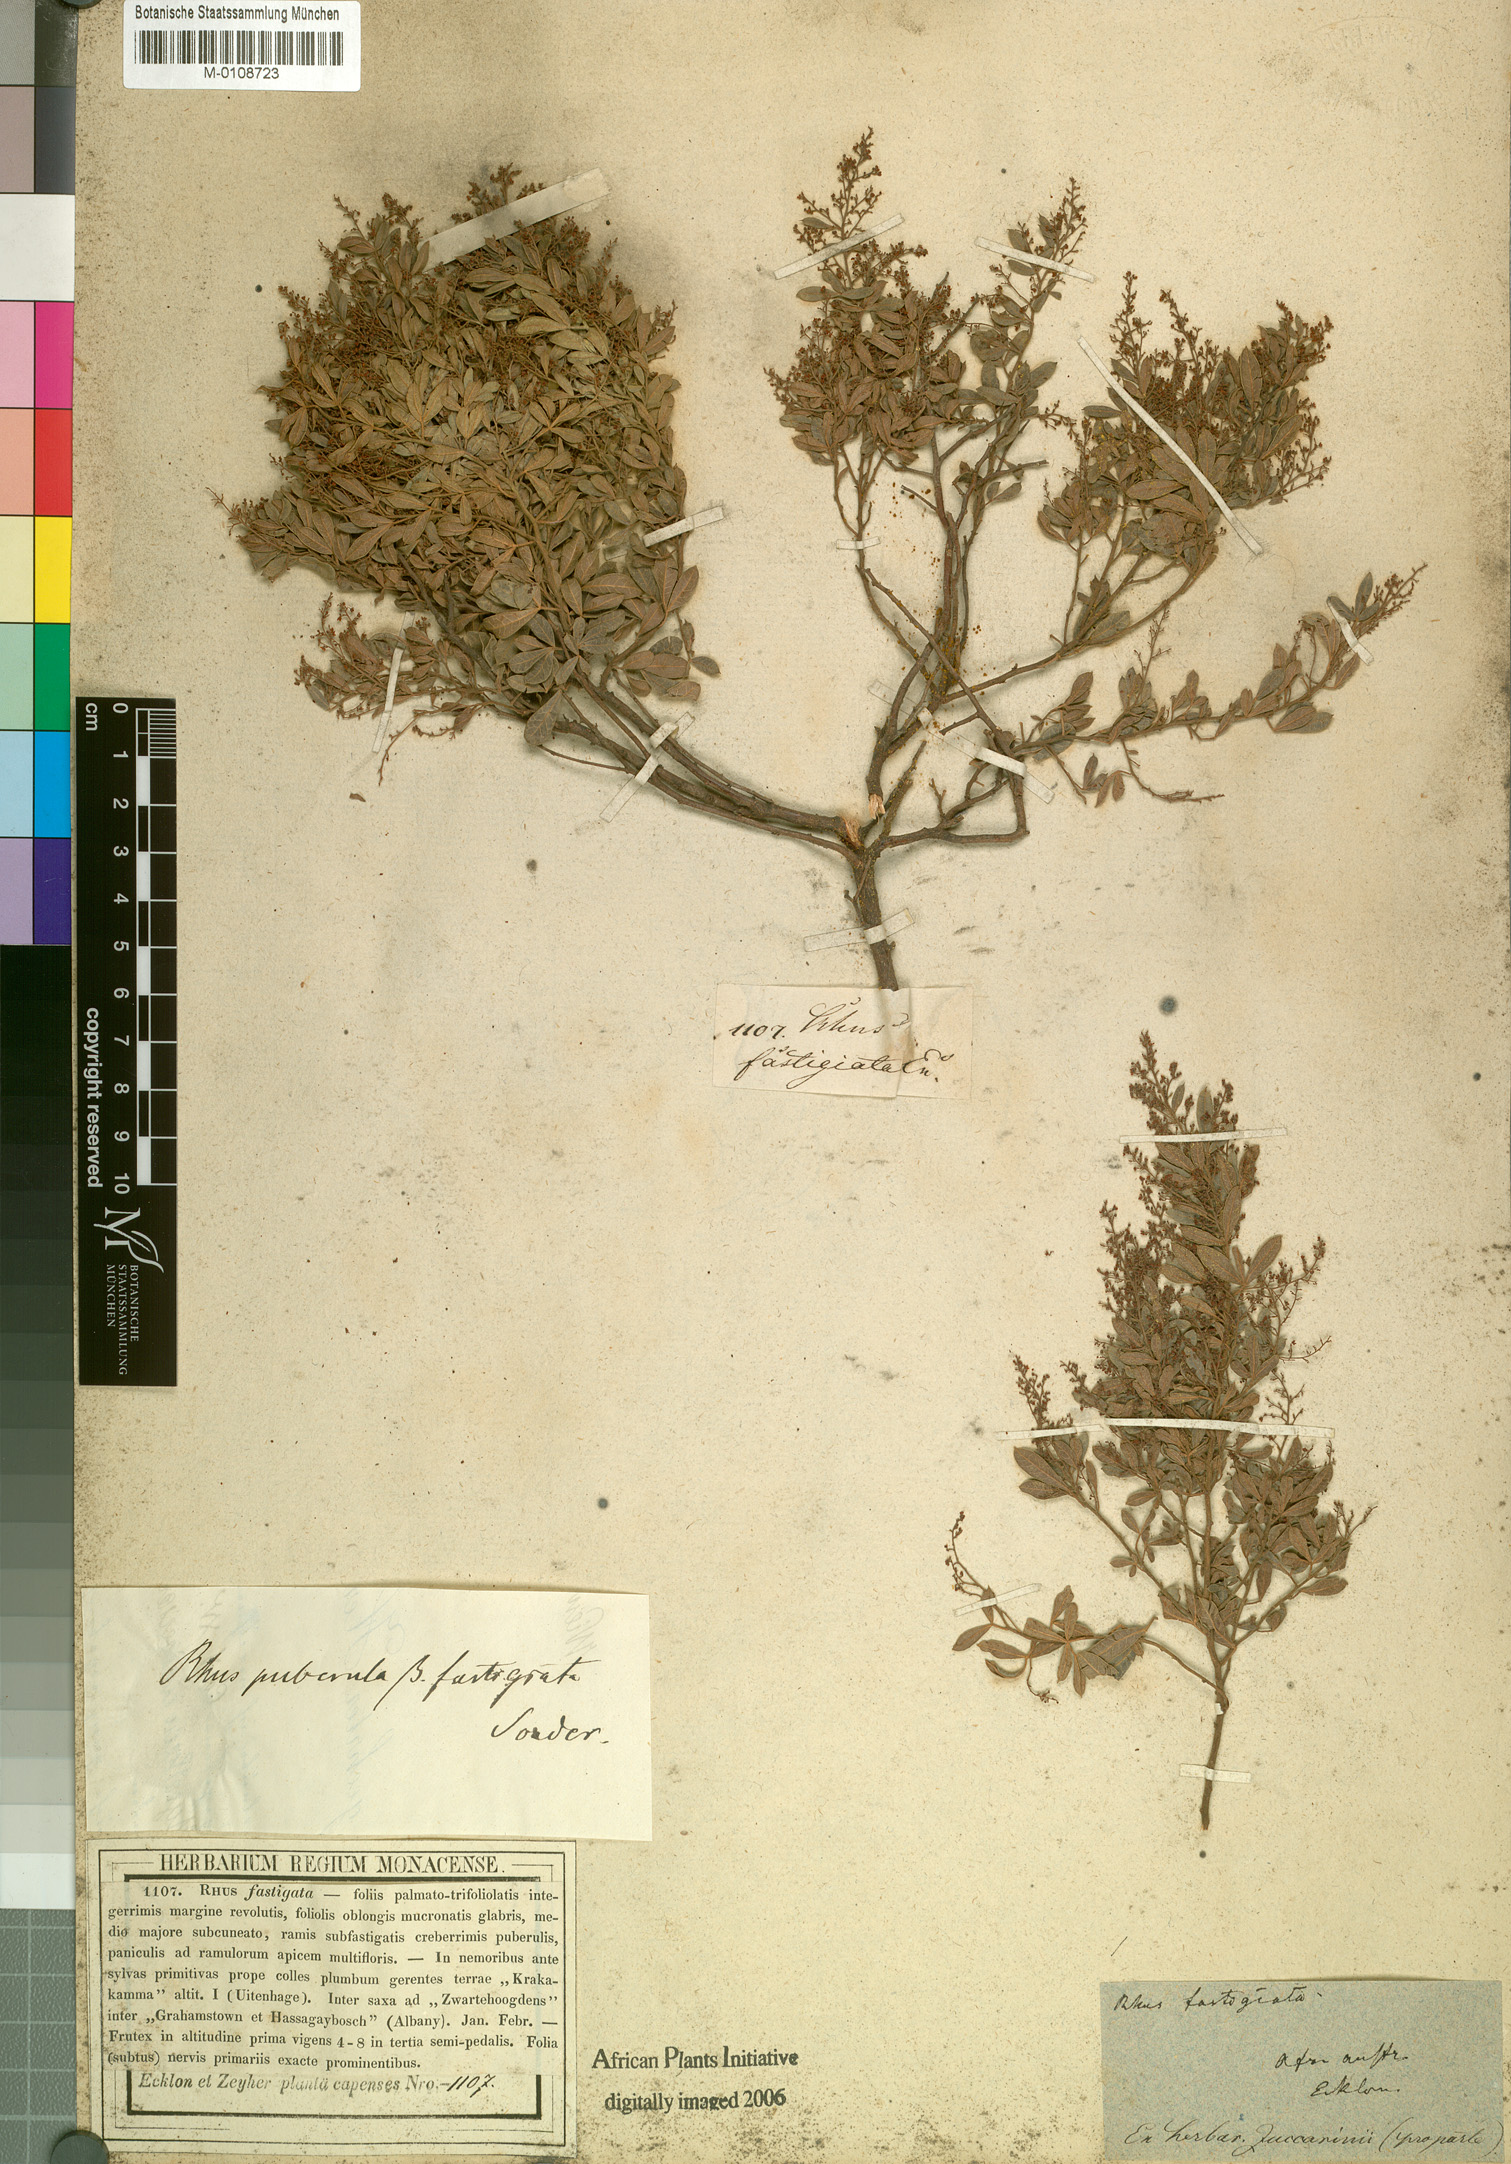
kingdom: Plantae
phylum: Tracheophyta
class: Magnoliopsida
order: Sapindales
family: Anacardiaceae
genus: Rhus
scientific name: Rhus fastigata
